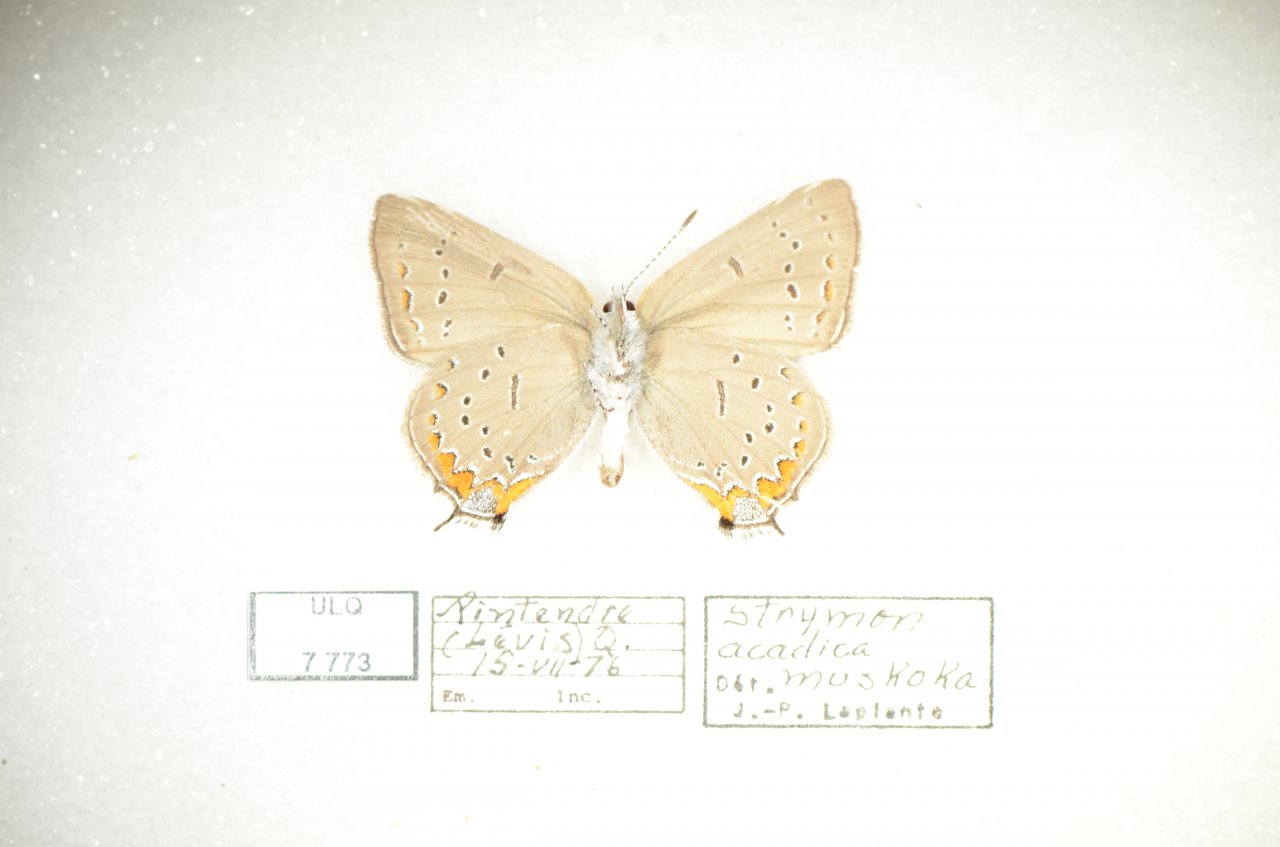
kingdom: Animalia
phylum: Arthropoda
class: Insecta
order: Lepidoptera
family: Lycaenidae
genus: Strymon
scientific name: Strymon acadica
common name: Acadian Hairstreak
